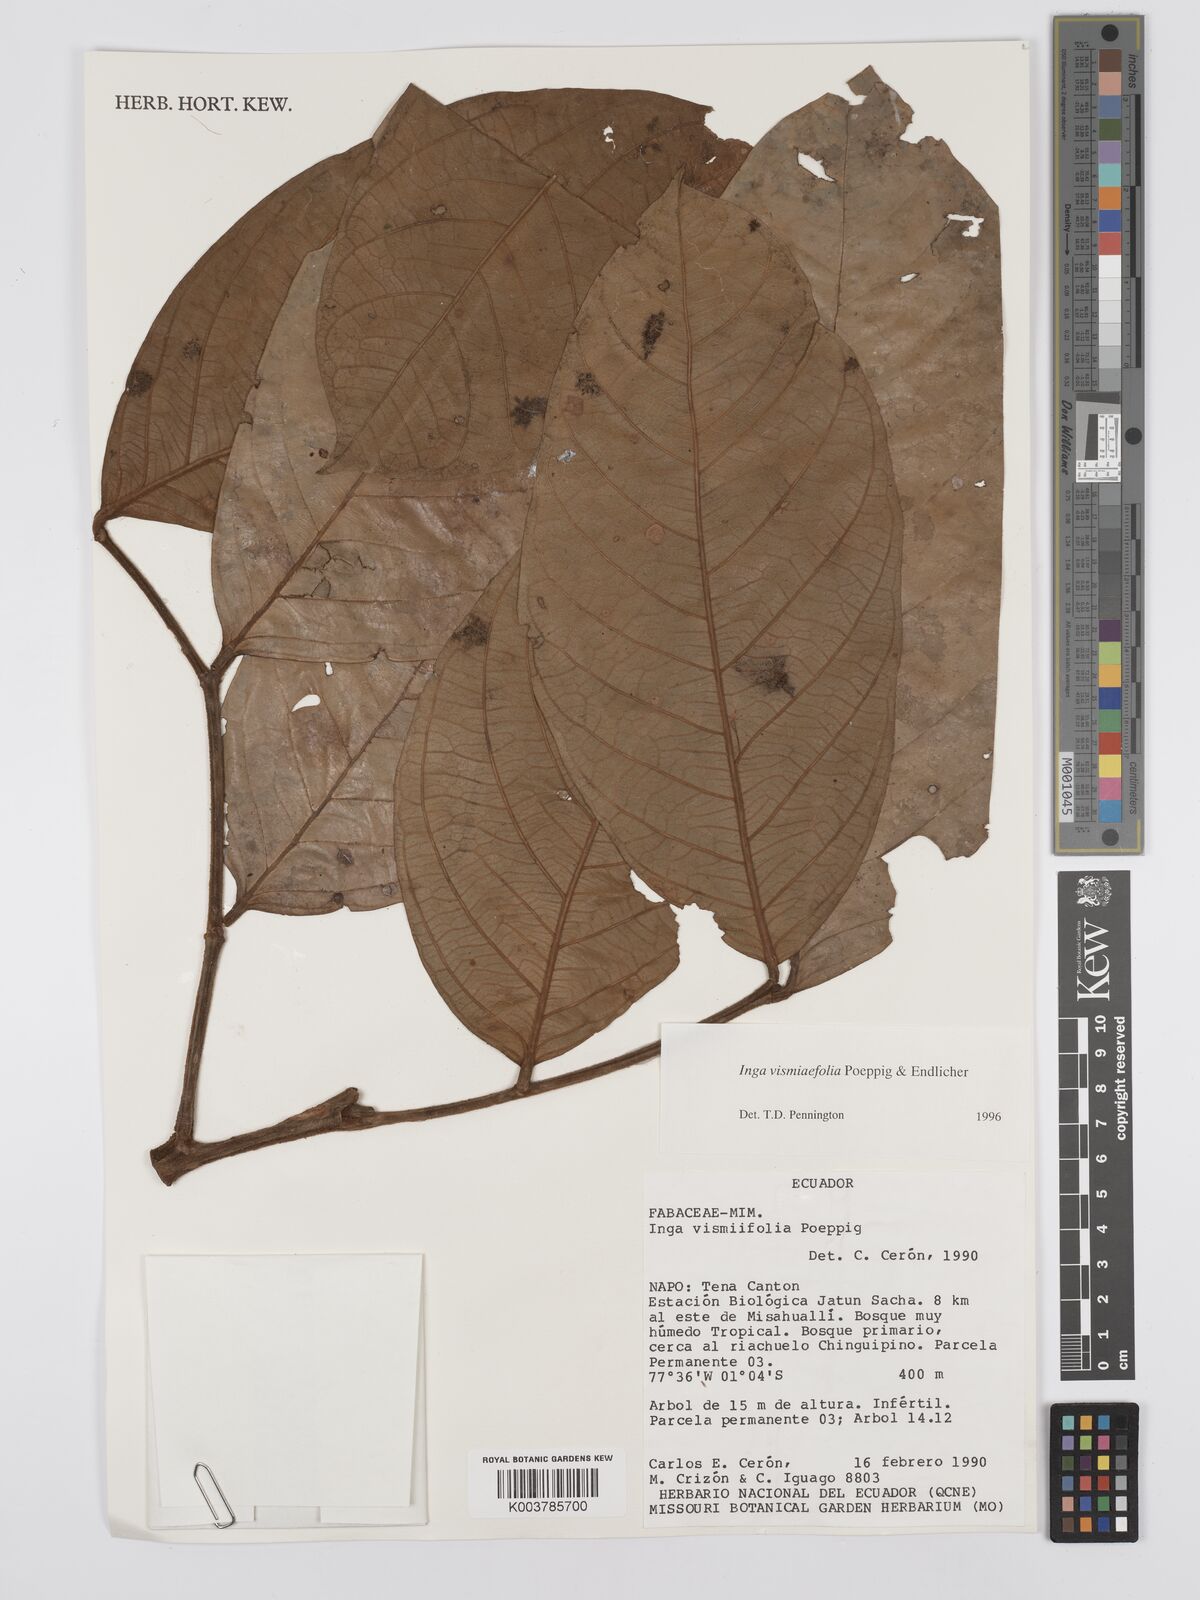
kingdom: Plantae
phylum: Tracheophyta
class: Magnoliopsida
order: Fabales
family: Fabaceae
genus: Inga
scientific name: Inga vismiifolia
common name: Howler monkey inga
